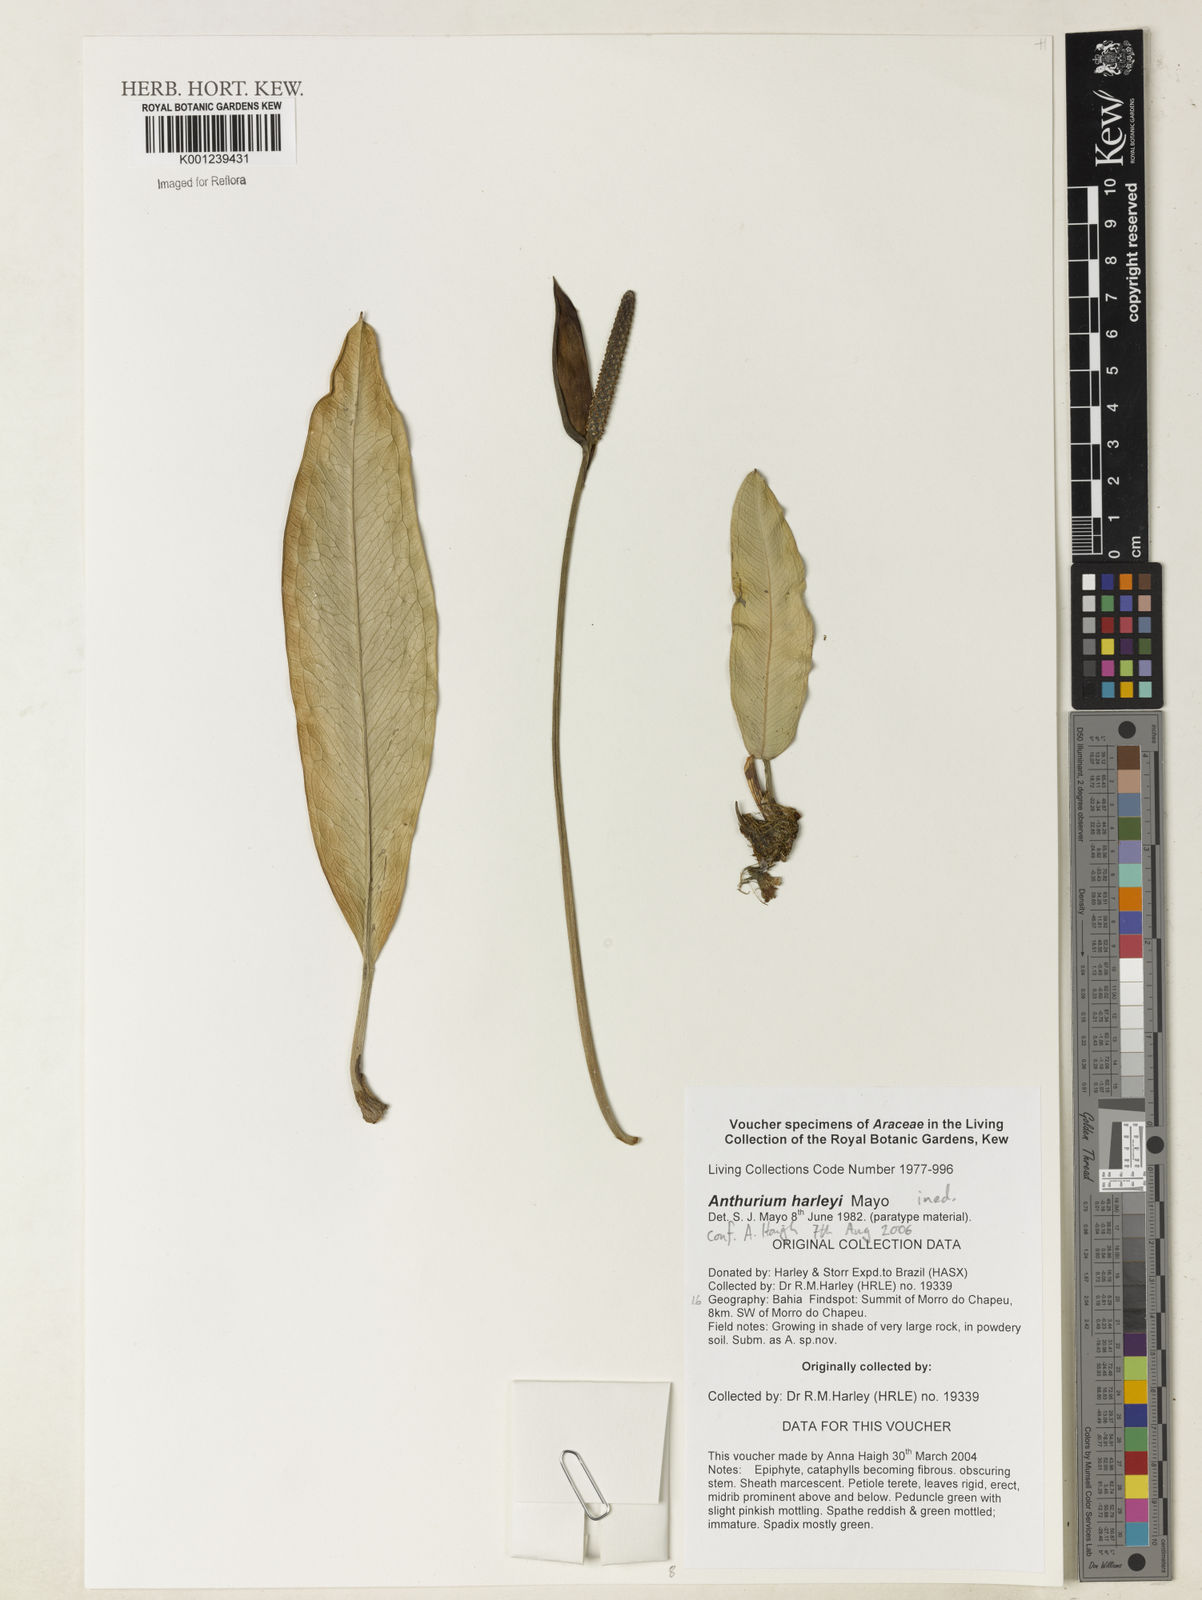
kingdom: Plantae
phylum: Tracheophyta
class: Liliopsida
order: Alismatales
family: Araceae
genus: Anthurium
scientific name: Anthurium
